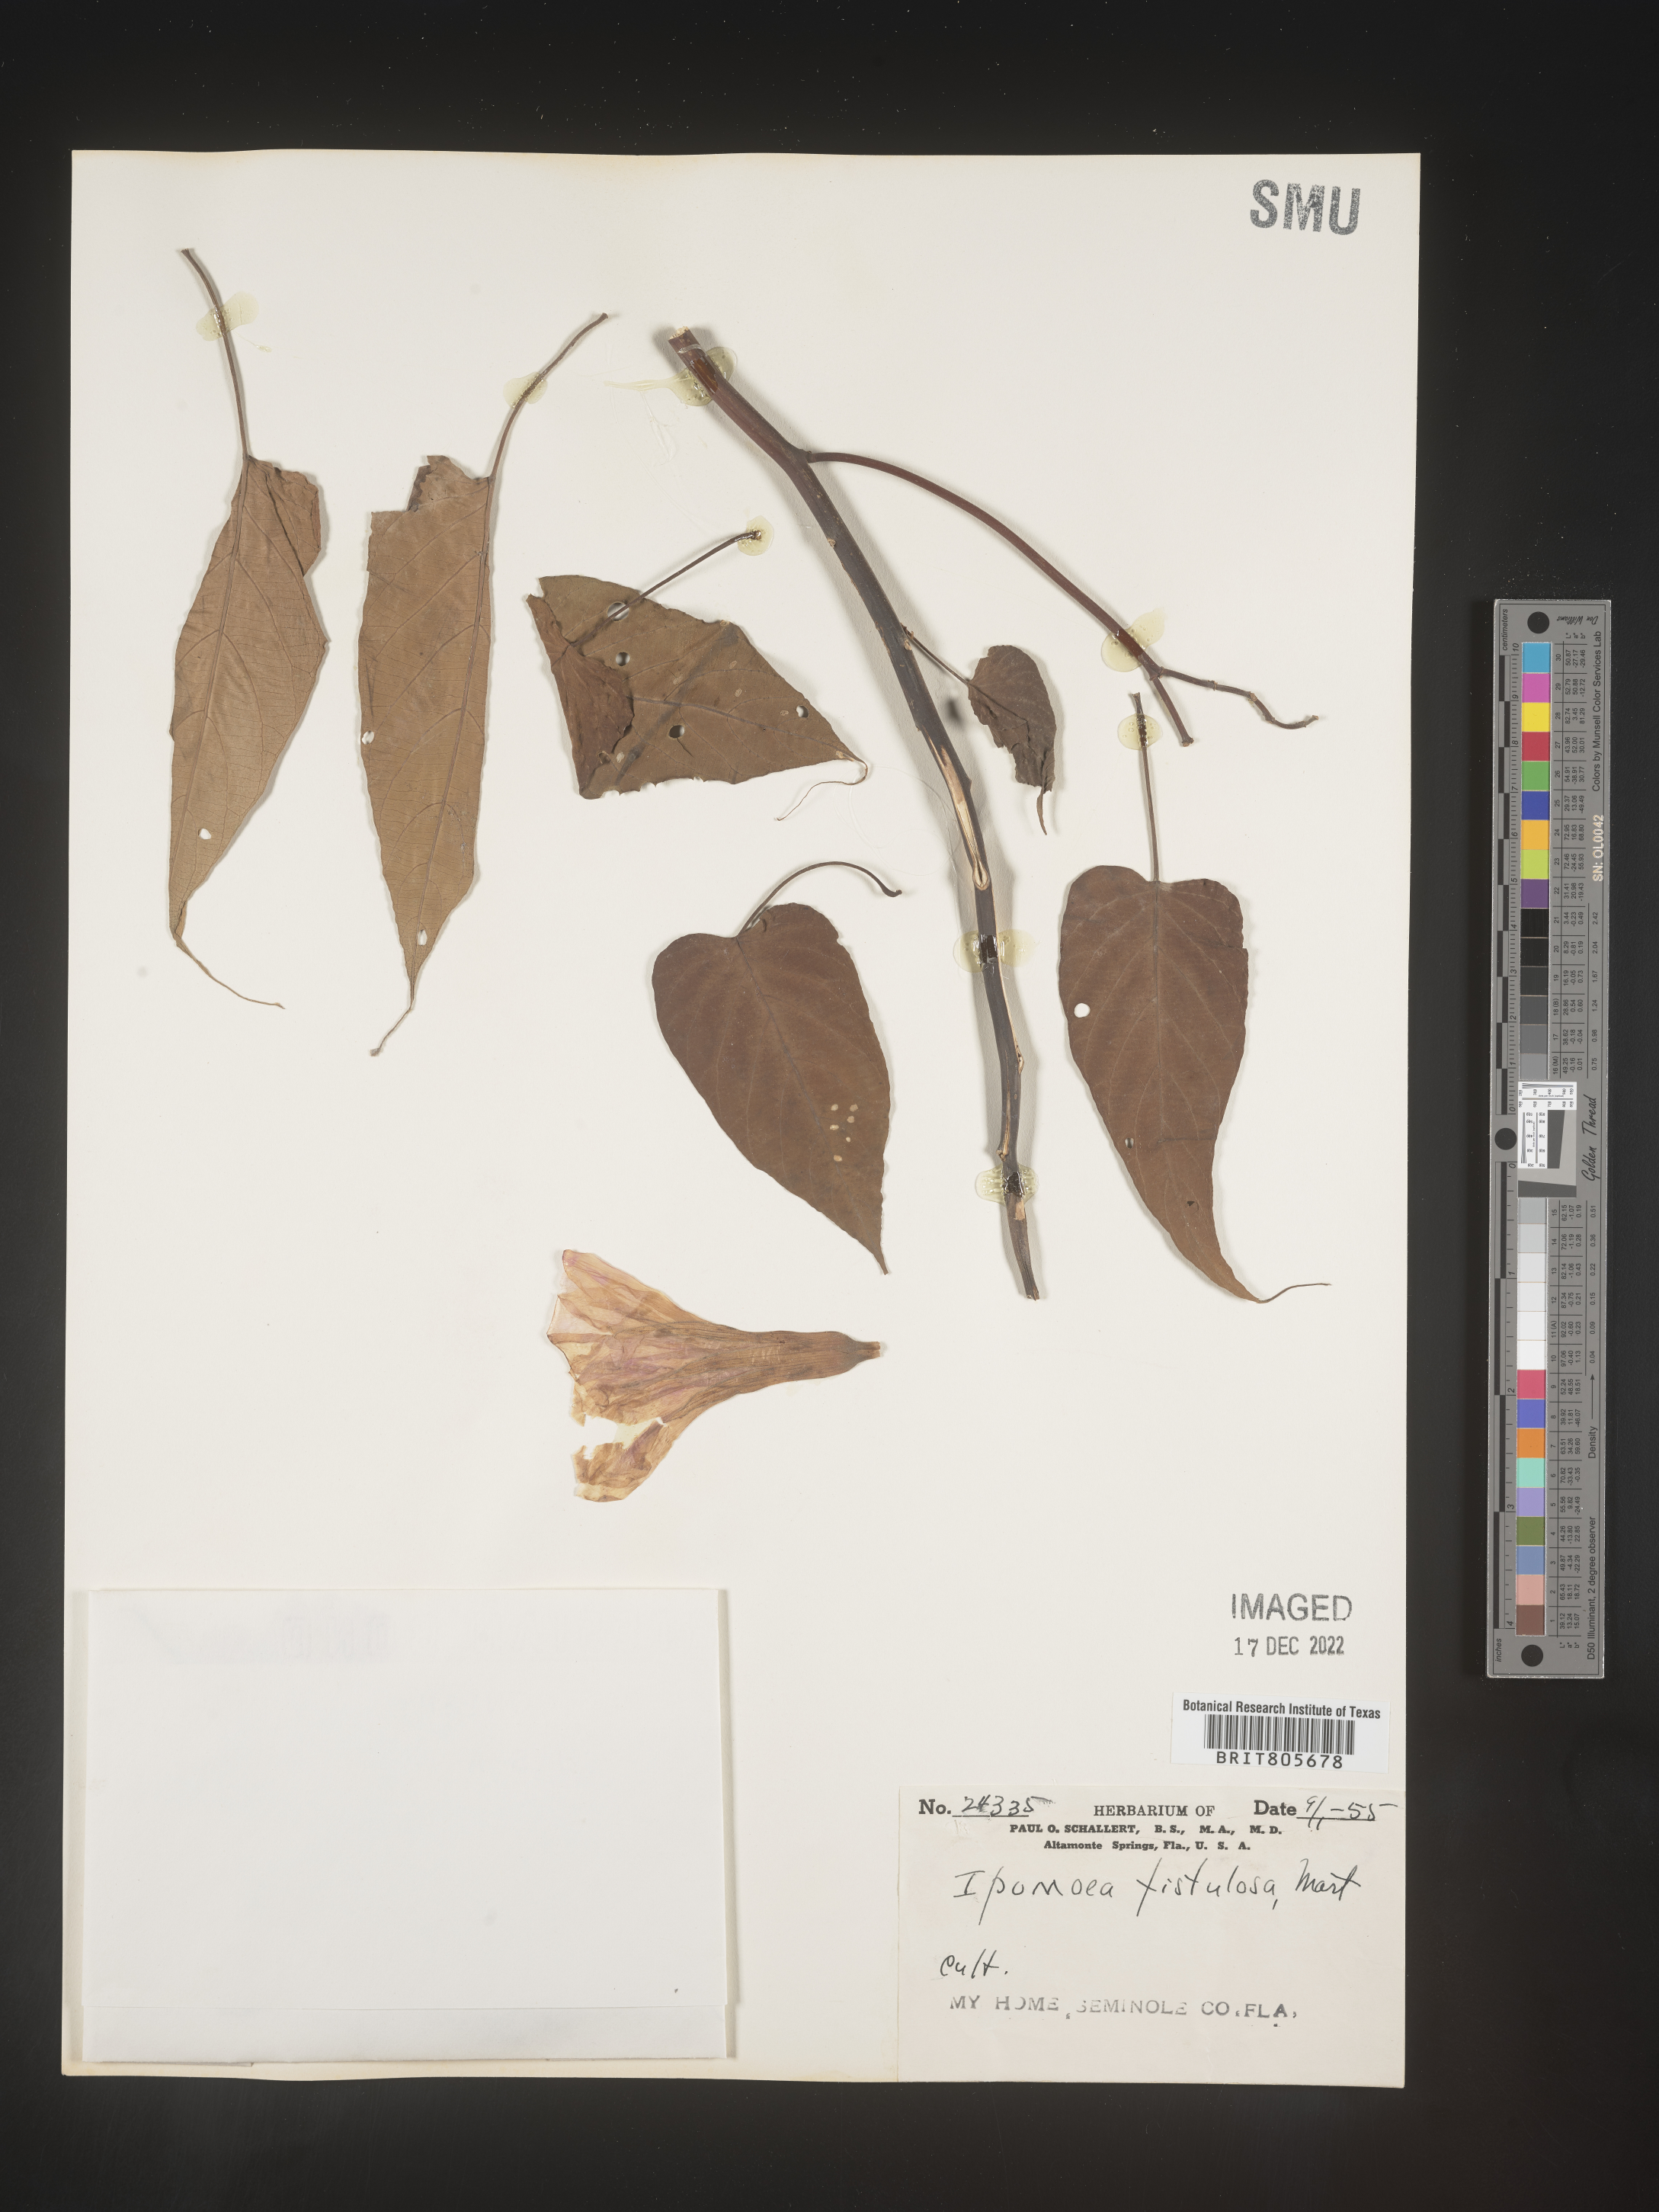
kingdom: Plantae
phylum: Tracheophyta
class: Magnoliopsida
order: Solanales
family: Convolvulaceae
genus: Ipomoea
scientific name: Ipomoea carnea
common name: Morning-glory
